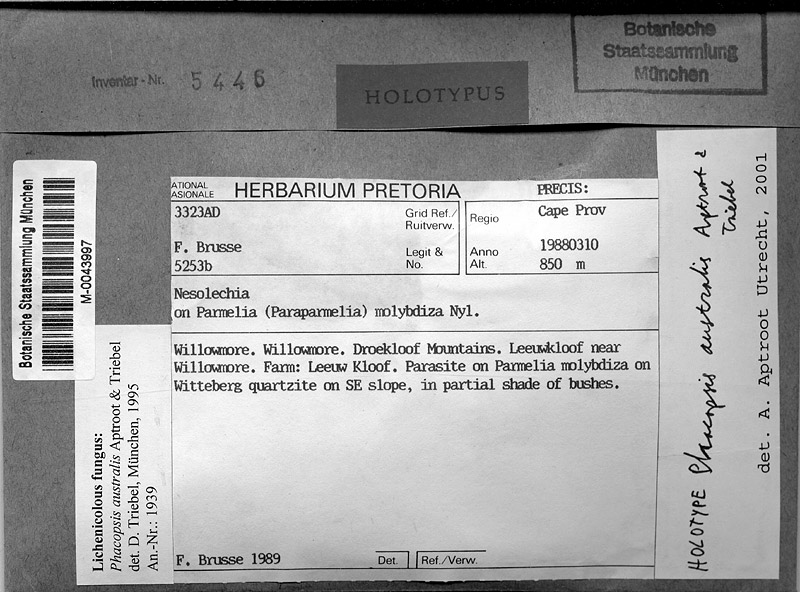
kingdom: Fungi
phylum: Ascomycota
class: Lecanoromycetes
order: Lecanorales
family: Parmeliaceae
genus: Phacopsis
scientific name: Phacopsis australis
